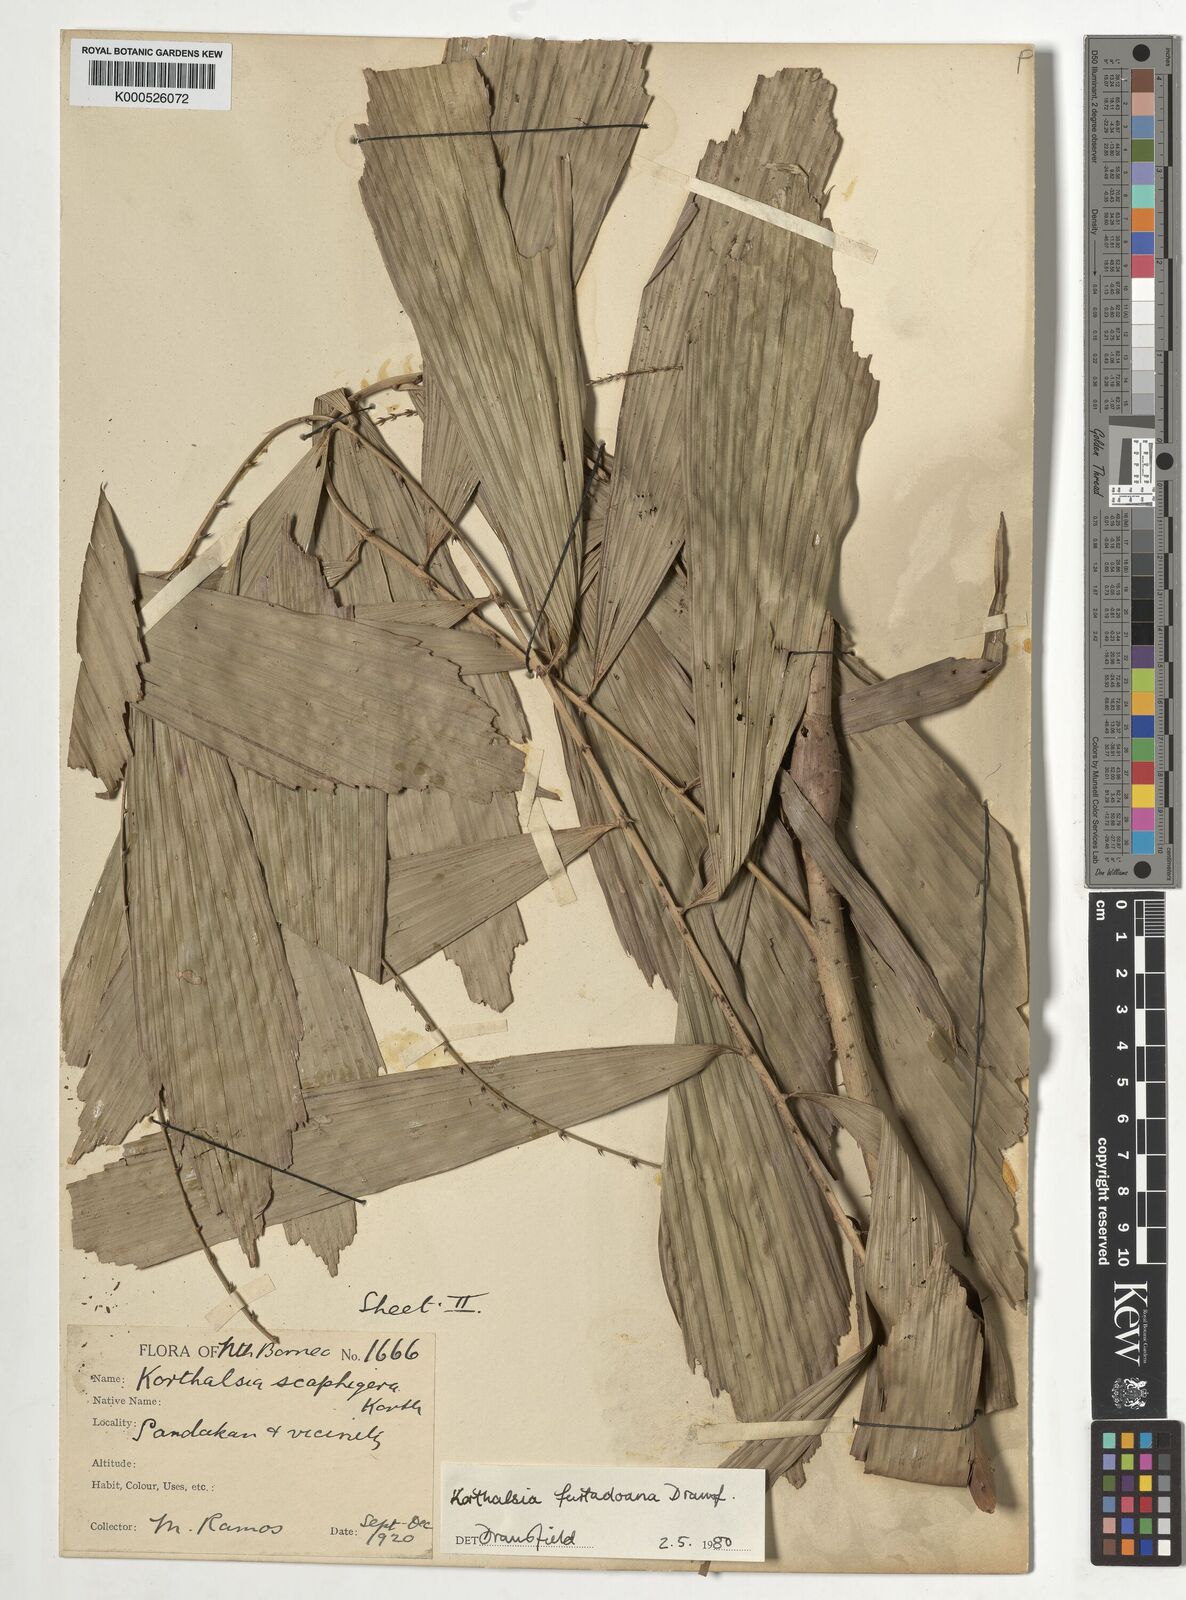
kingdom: Plantae
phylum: Tracheophyta
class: Liliopsida
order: Arecales
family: Arecaceae
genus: Korthalsia
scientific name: Korthalsia furtadoana
